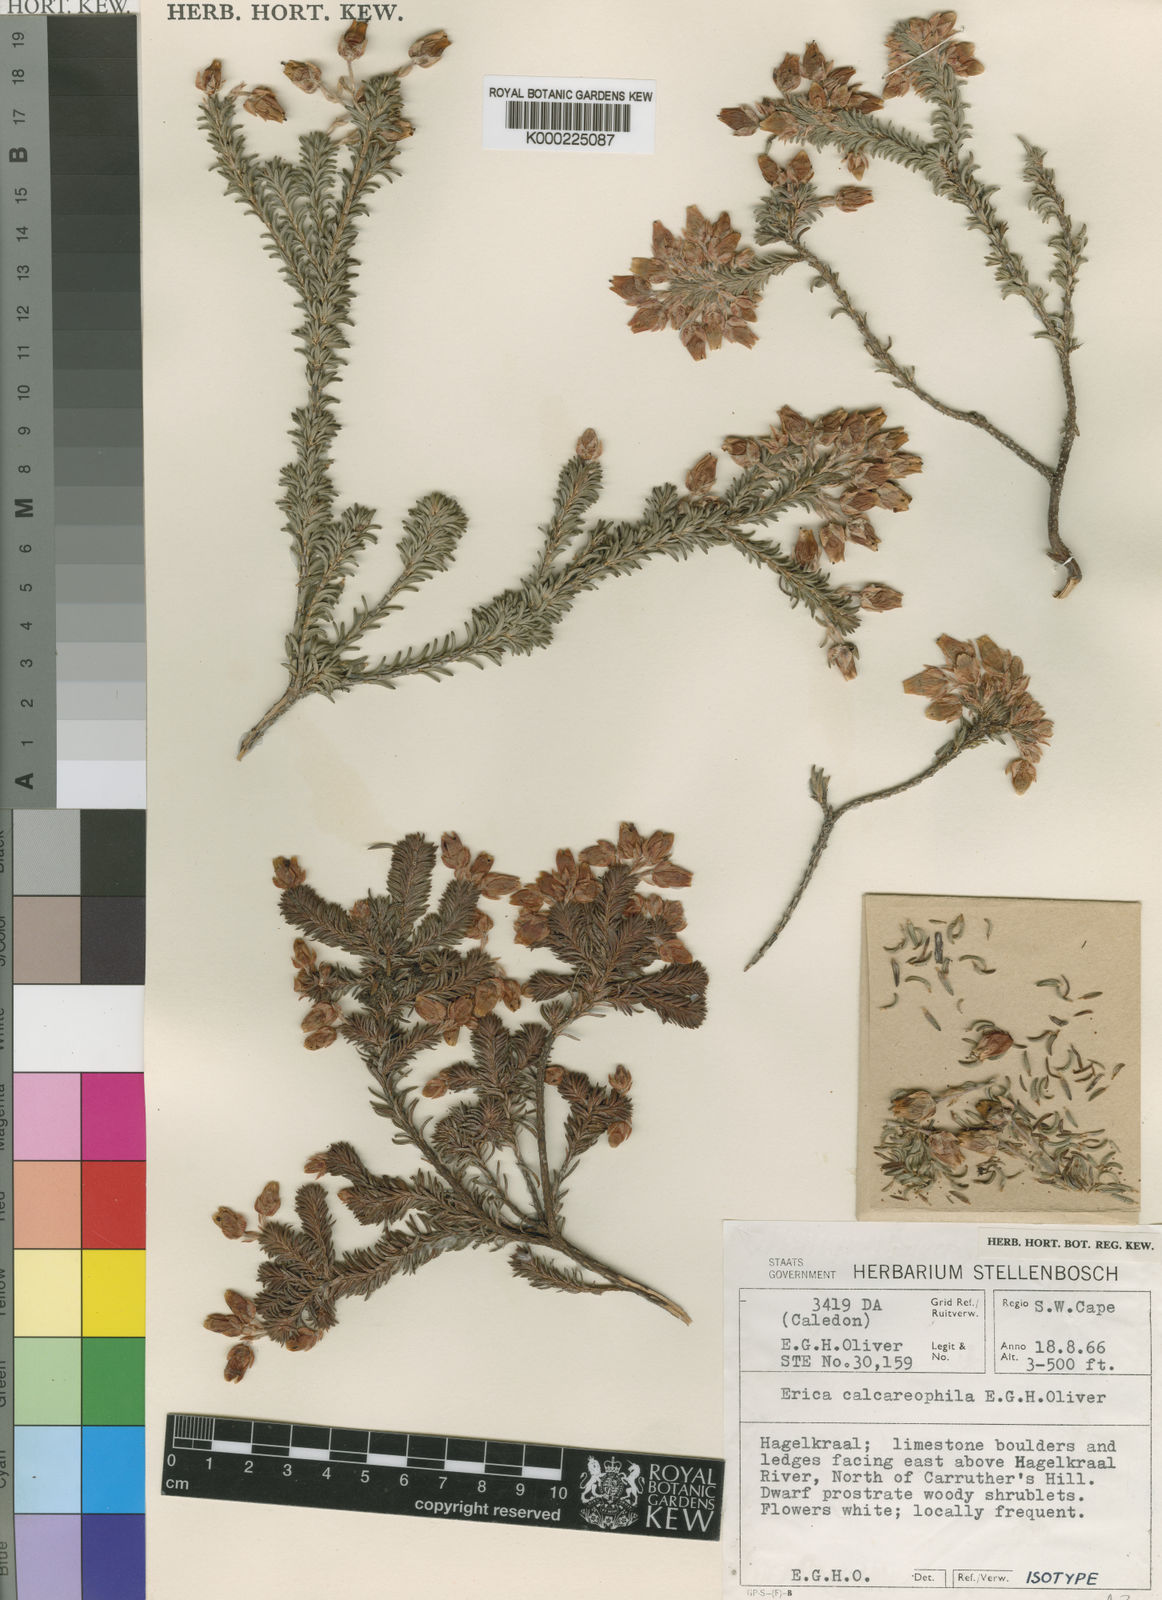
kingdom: Plantae
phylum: Tracheophyta
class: Magnoliopsida
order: Ericales
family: Ericaceae
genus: Erica
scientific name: Erica calcareophila
